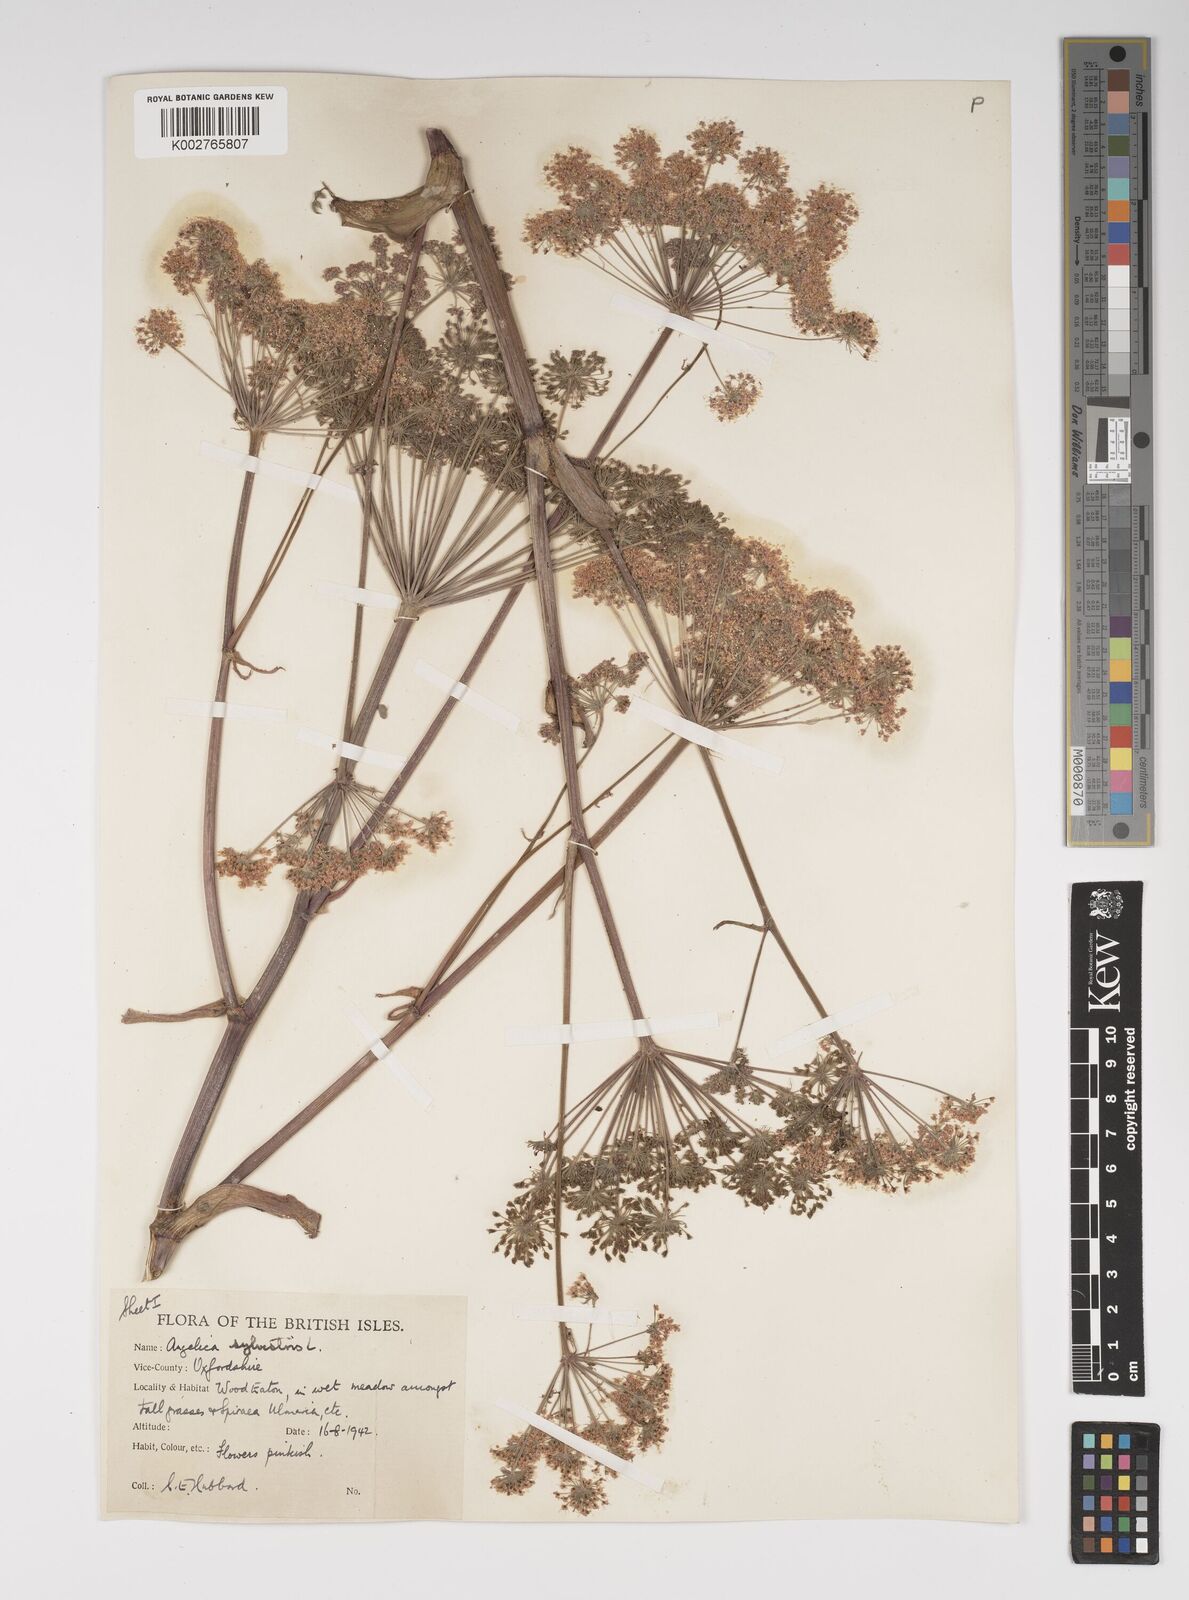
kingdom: Plantae
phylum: Tracheophyta
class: Magnoliopsida
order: Apiales
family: Apiaceae
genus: Angelica
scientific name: Angelica sylvestris
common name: Wild angelica
